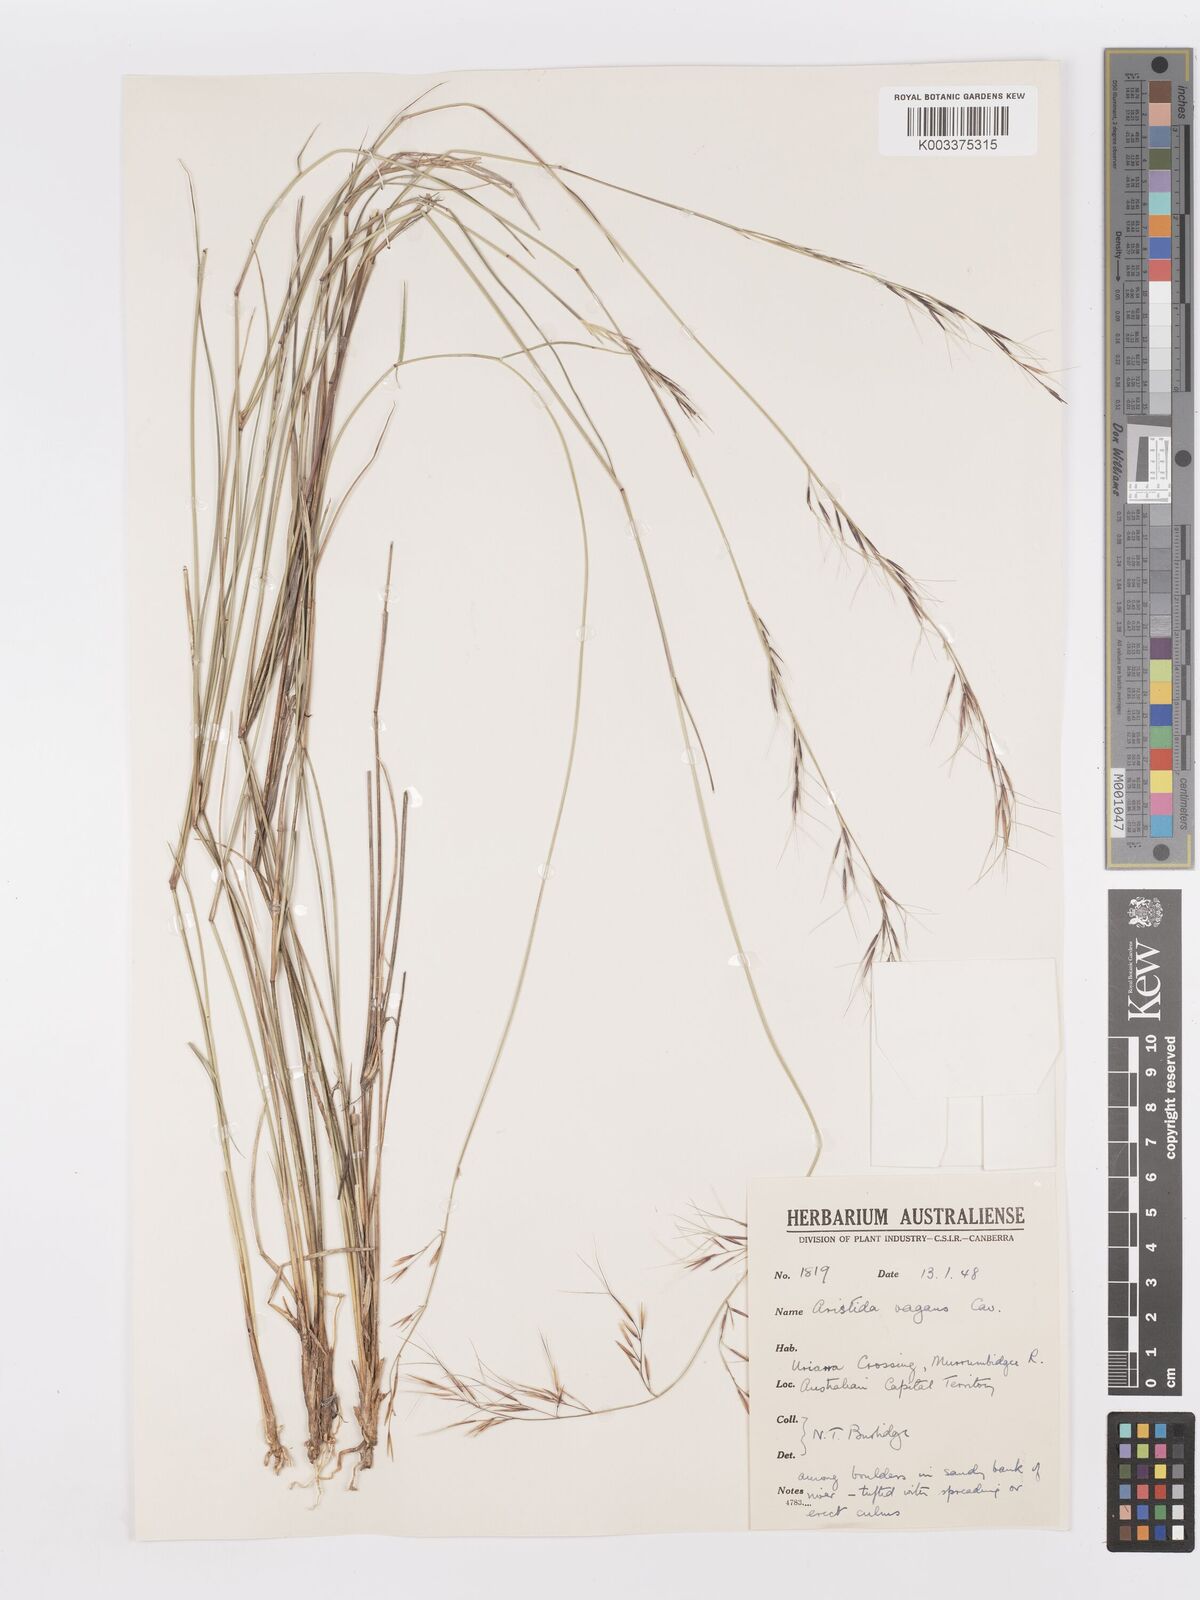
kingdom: Plantae
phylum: Tracheophyta
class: Liliopsida
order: Poales
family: Poaceae
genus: Aristida
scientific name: Aristida vagans
